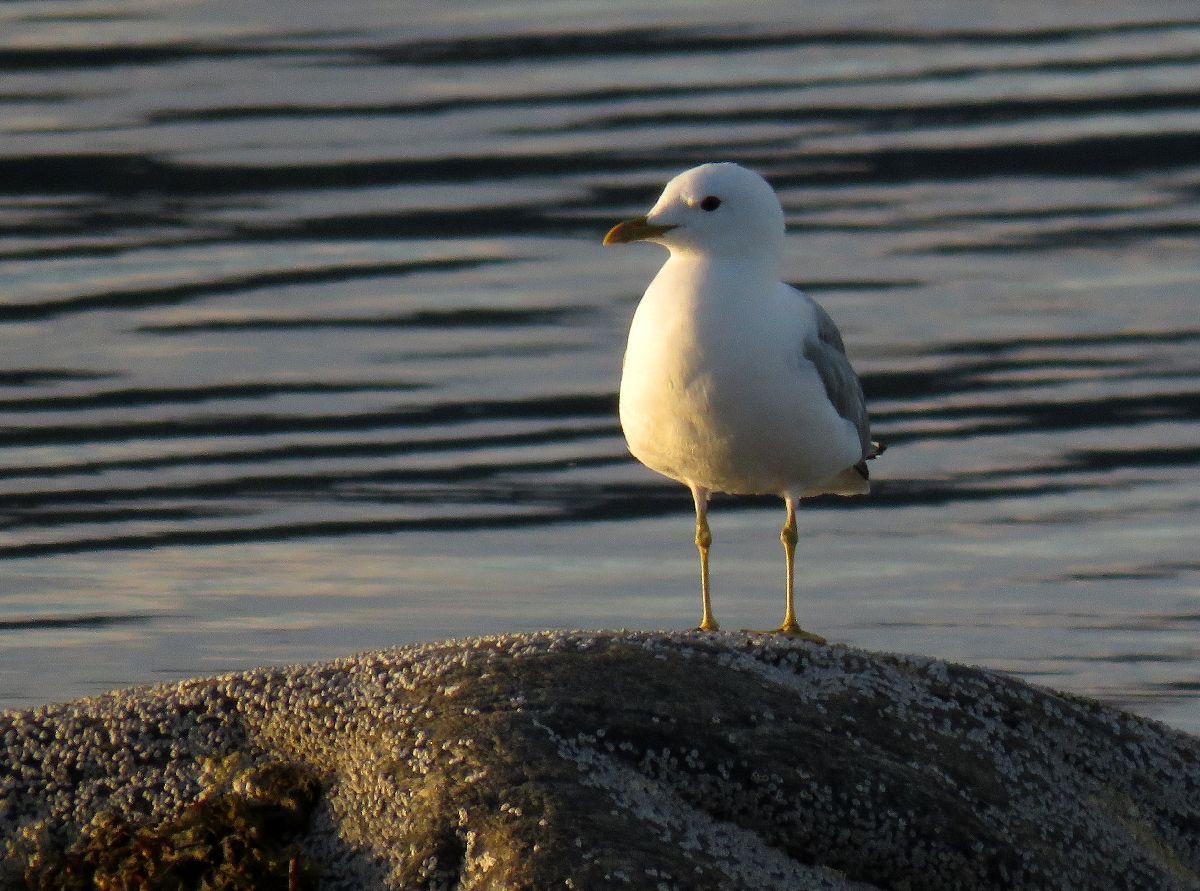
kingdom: Animalia
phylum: Chordata
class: Aves
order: Charadriiformes
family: Laridae
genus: Larus
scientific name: Larus canus
